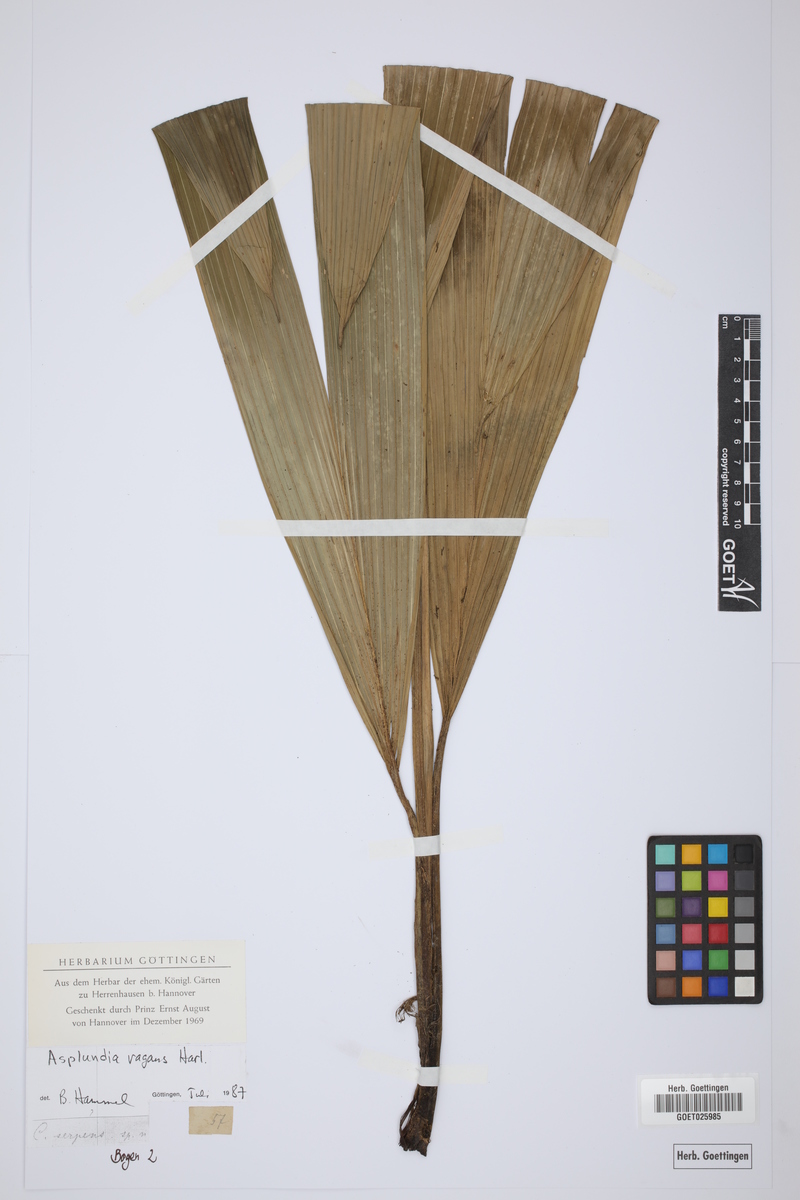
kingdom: Plantae
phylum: Tracheophyta
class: Liliopsida
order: Pandanales
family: Cyclanthaceae
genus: Asplundia
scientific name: Asplundia vagans
